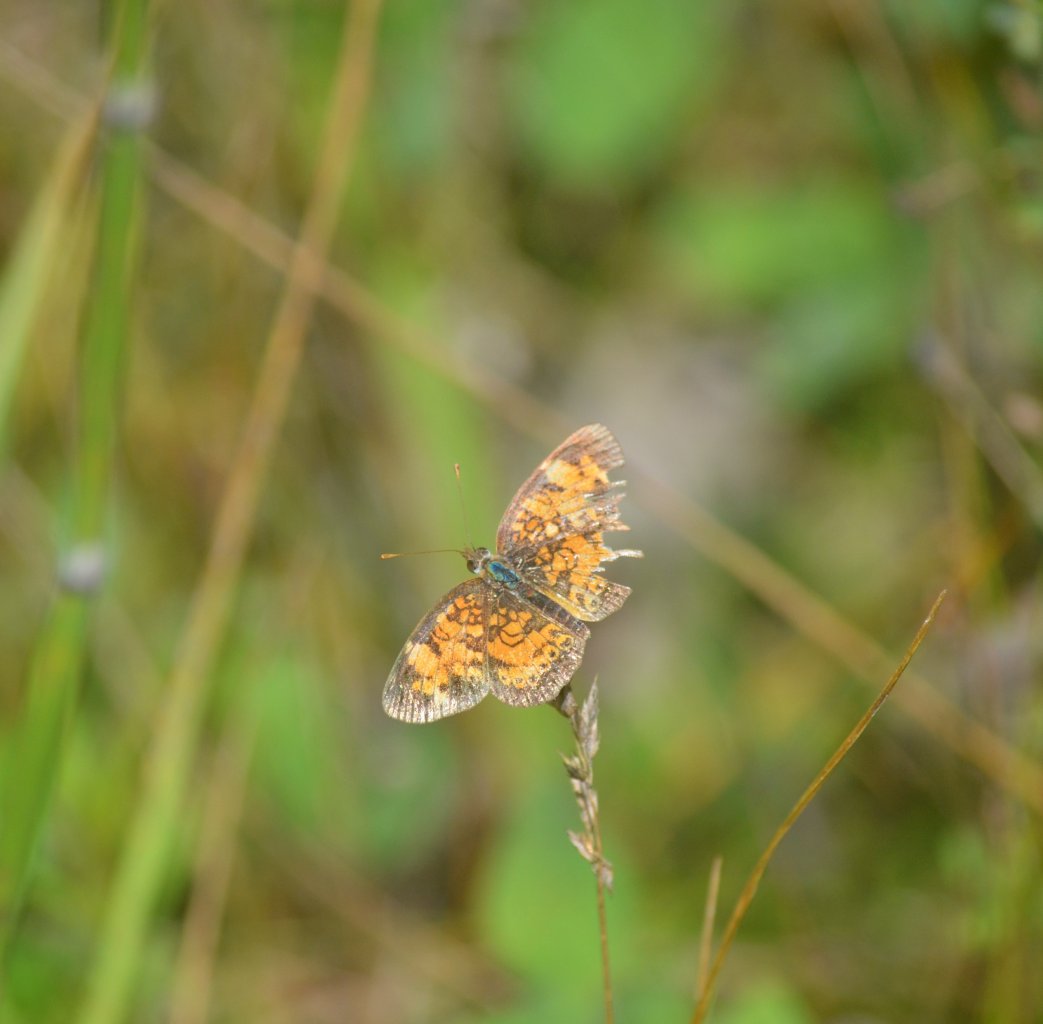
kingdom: Animalia
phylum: Arthropoda
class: Insecta
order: Lepidoptera
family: Nymphalidae
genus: Phyciodes
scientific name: Phyciodes tharos
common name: Northern Crescent
